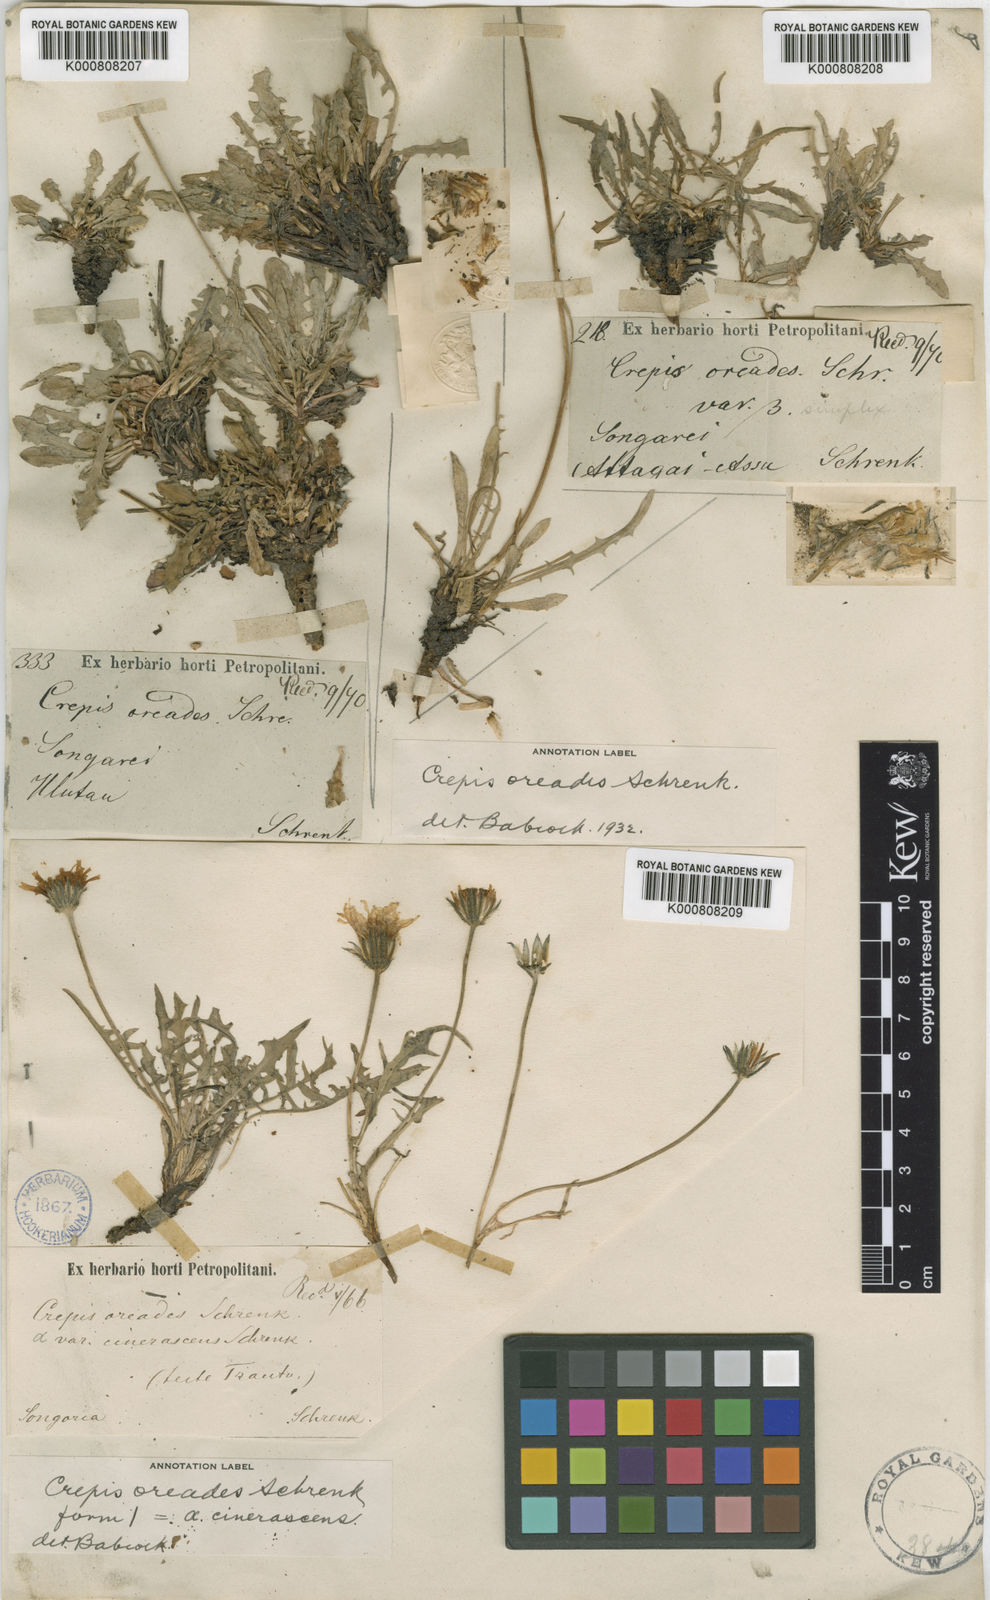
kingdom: Plantae
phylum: Tracheophyta
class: Magnoliopsida
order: Asterales
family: Asteraceae
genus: Crepis
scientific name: Crepis
